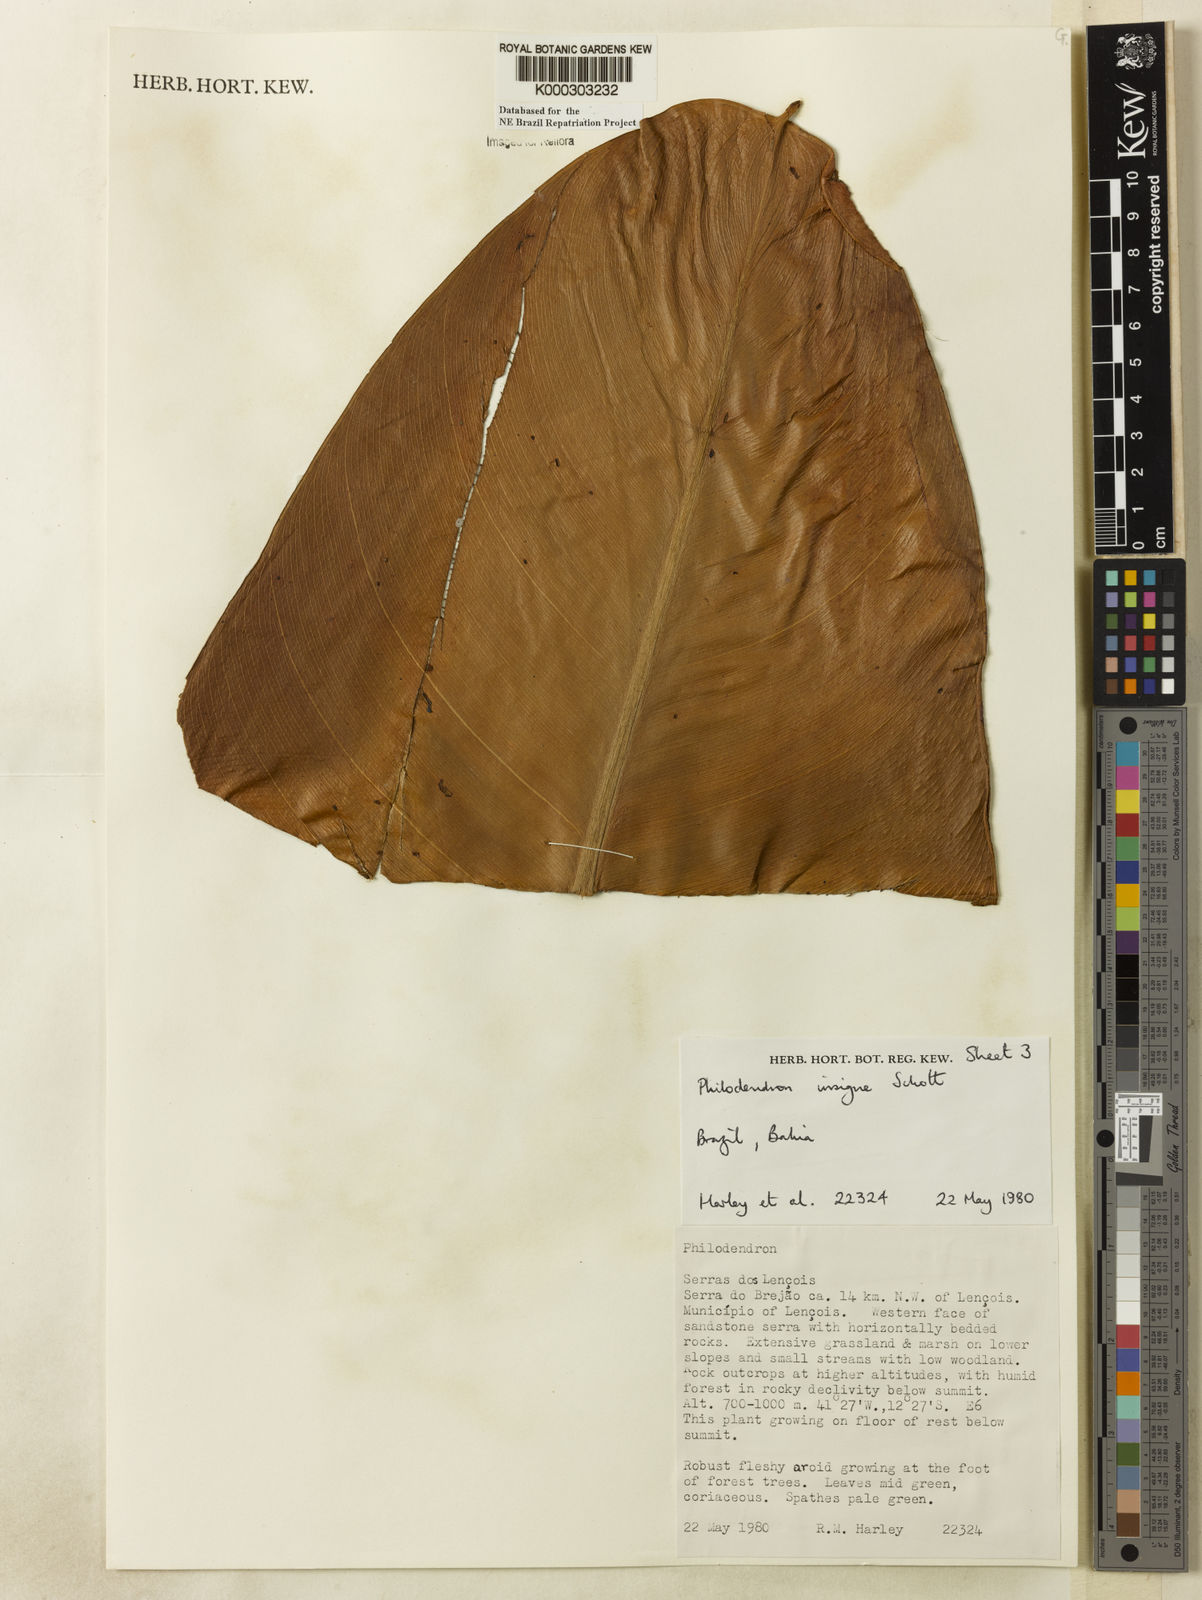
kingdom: Plantae
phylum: Tracheophyta
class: Liliopsida
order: Alismatales
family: Araceae
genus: Philodendron
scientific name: Philodendron insigne
